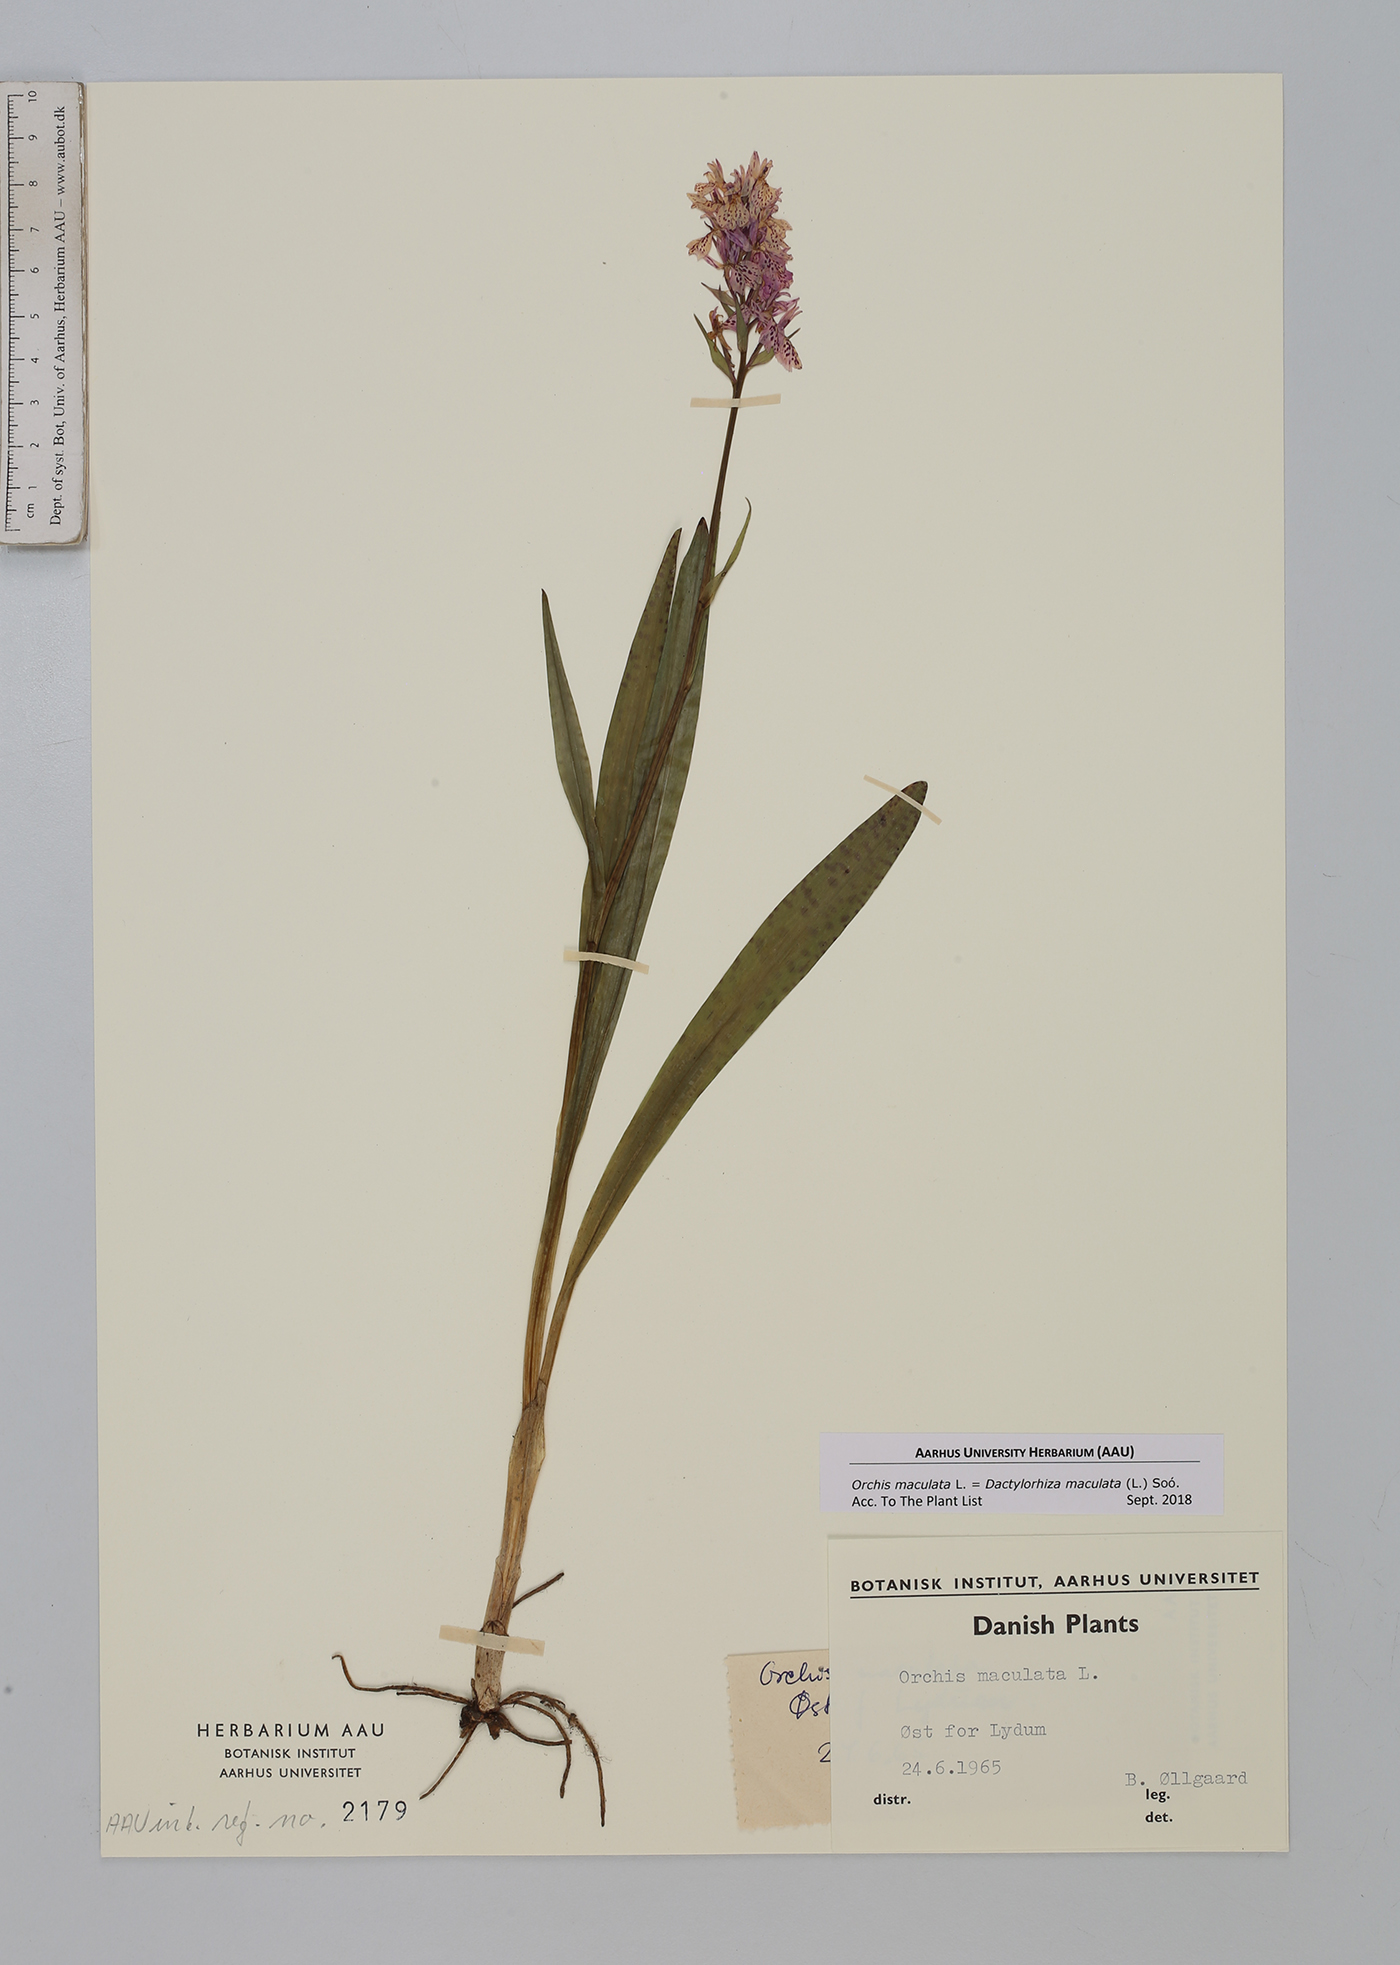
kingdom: Plantae
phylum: Tracheophyta
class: Liliopsida
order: Asparagales
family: Orchidaceae
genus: Dactylorhiza
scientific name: Dactylorhiza maculata
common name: Heath spotted-orchid
